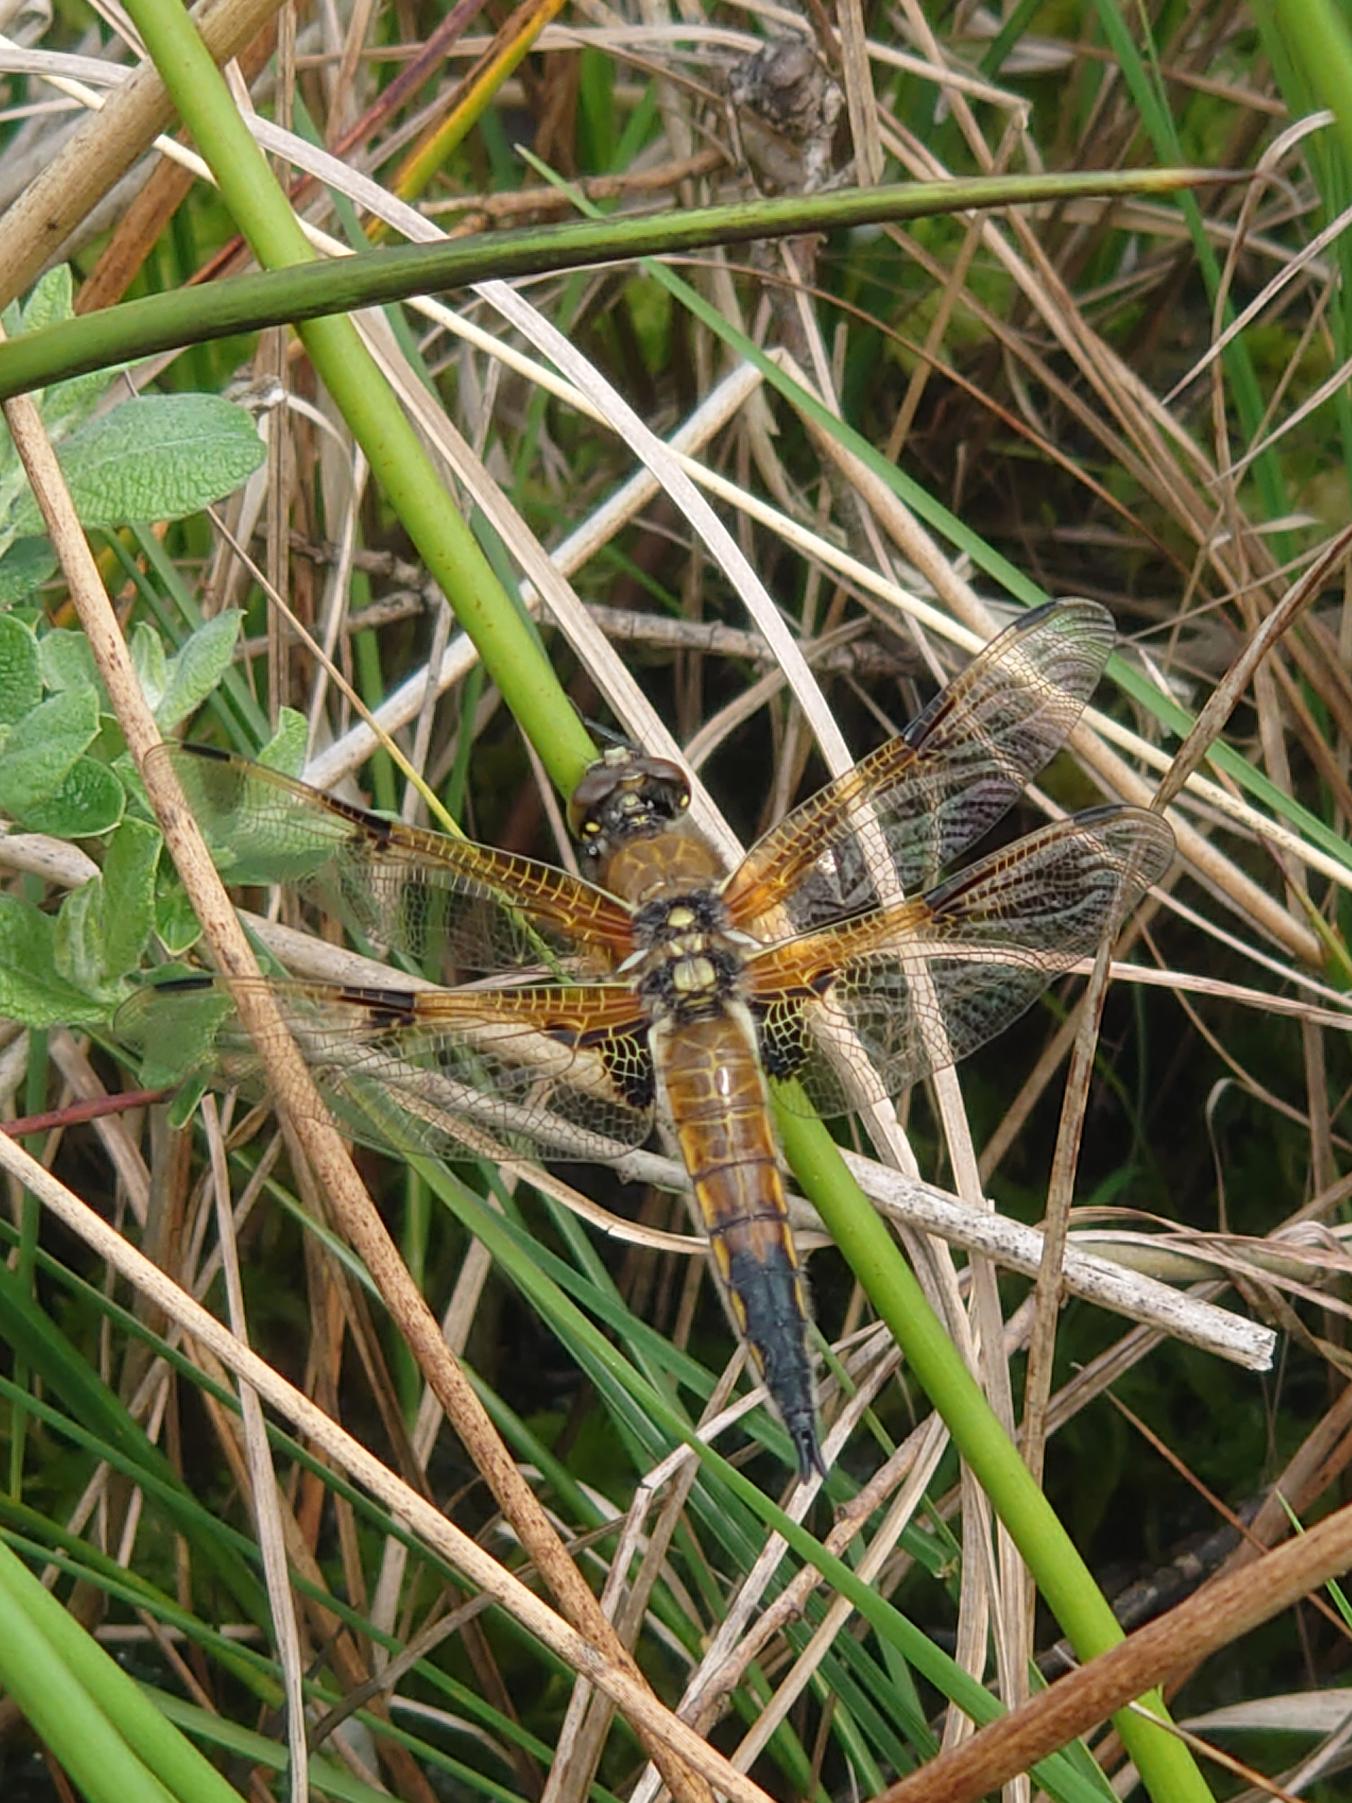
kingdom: Animalia
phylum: Arthropoda
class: Insecta
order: Odonata
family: Libellulidae
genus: Libellula
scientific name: Libellula quadrimaculata
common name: Fireplettet libel
